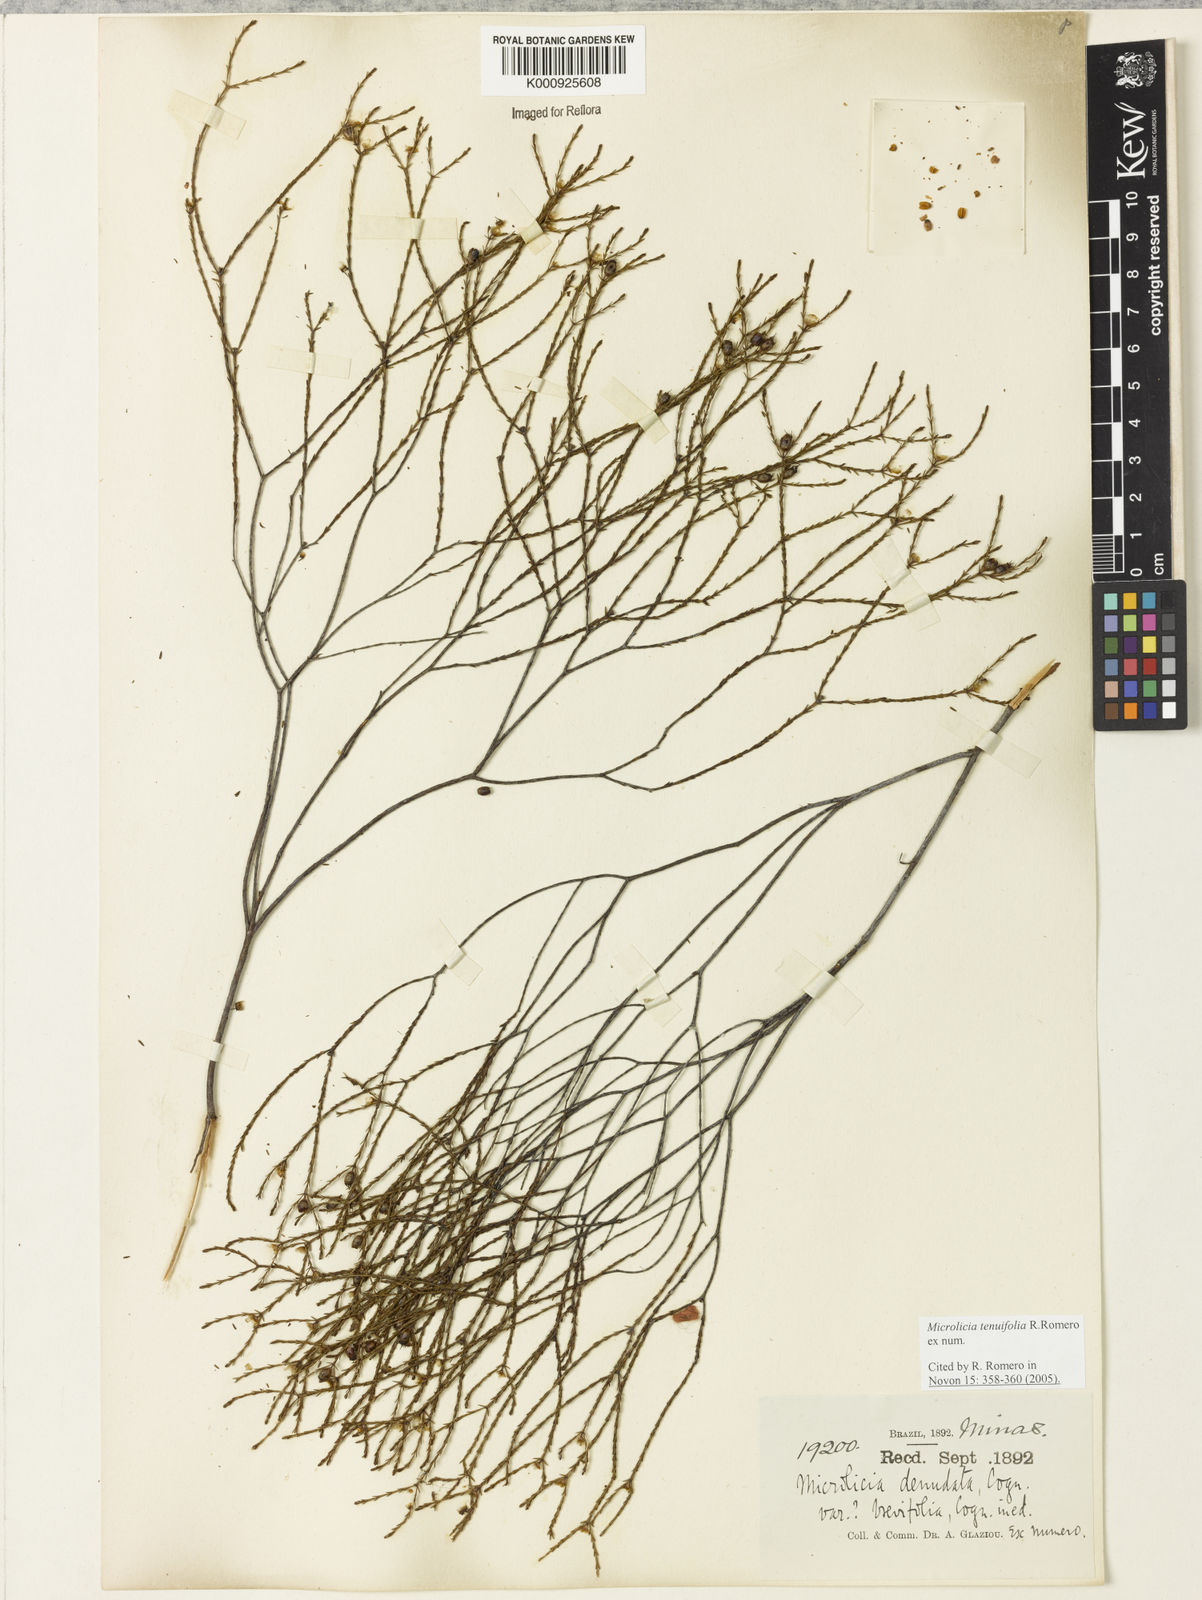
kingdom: Plantae
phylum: Tracheophyta
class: Magnoliopsida
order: Myrtales
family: Melastomataceae
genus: Microlicia
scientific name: Microlicia tenuifolia
